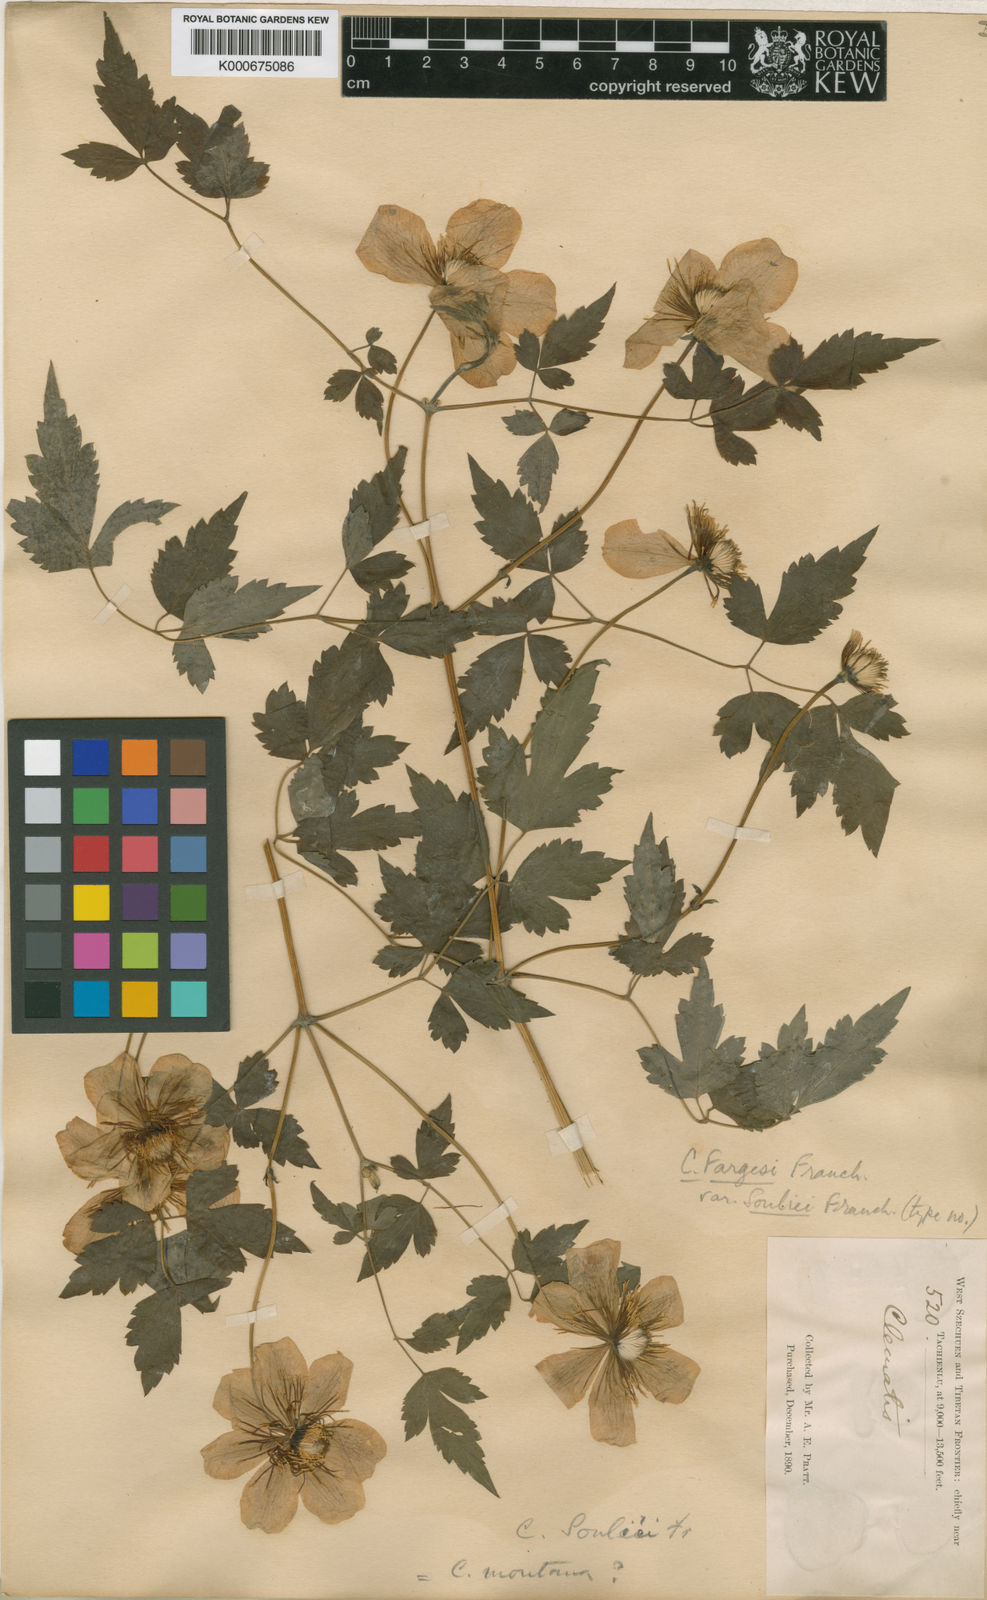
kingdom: Plantae
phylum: Tracheophyta
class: Magnoliopsida
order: Ranunculales
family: Ranunculaceae
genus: Clematis
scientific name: Clematis potaninii
